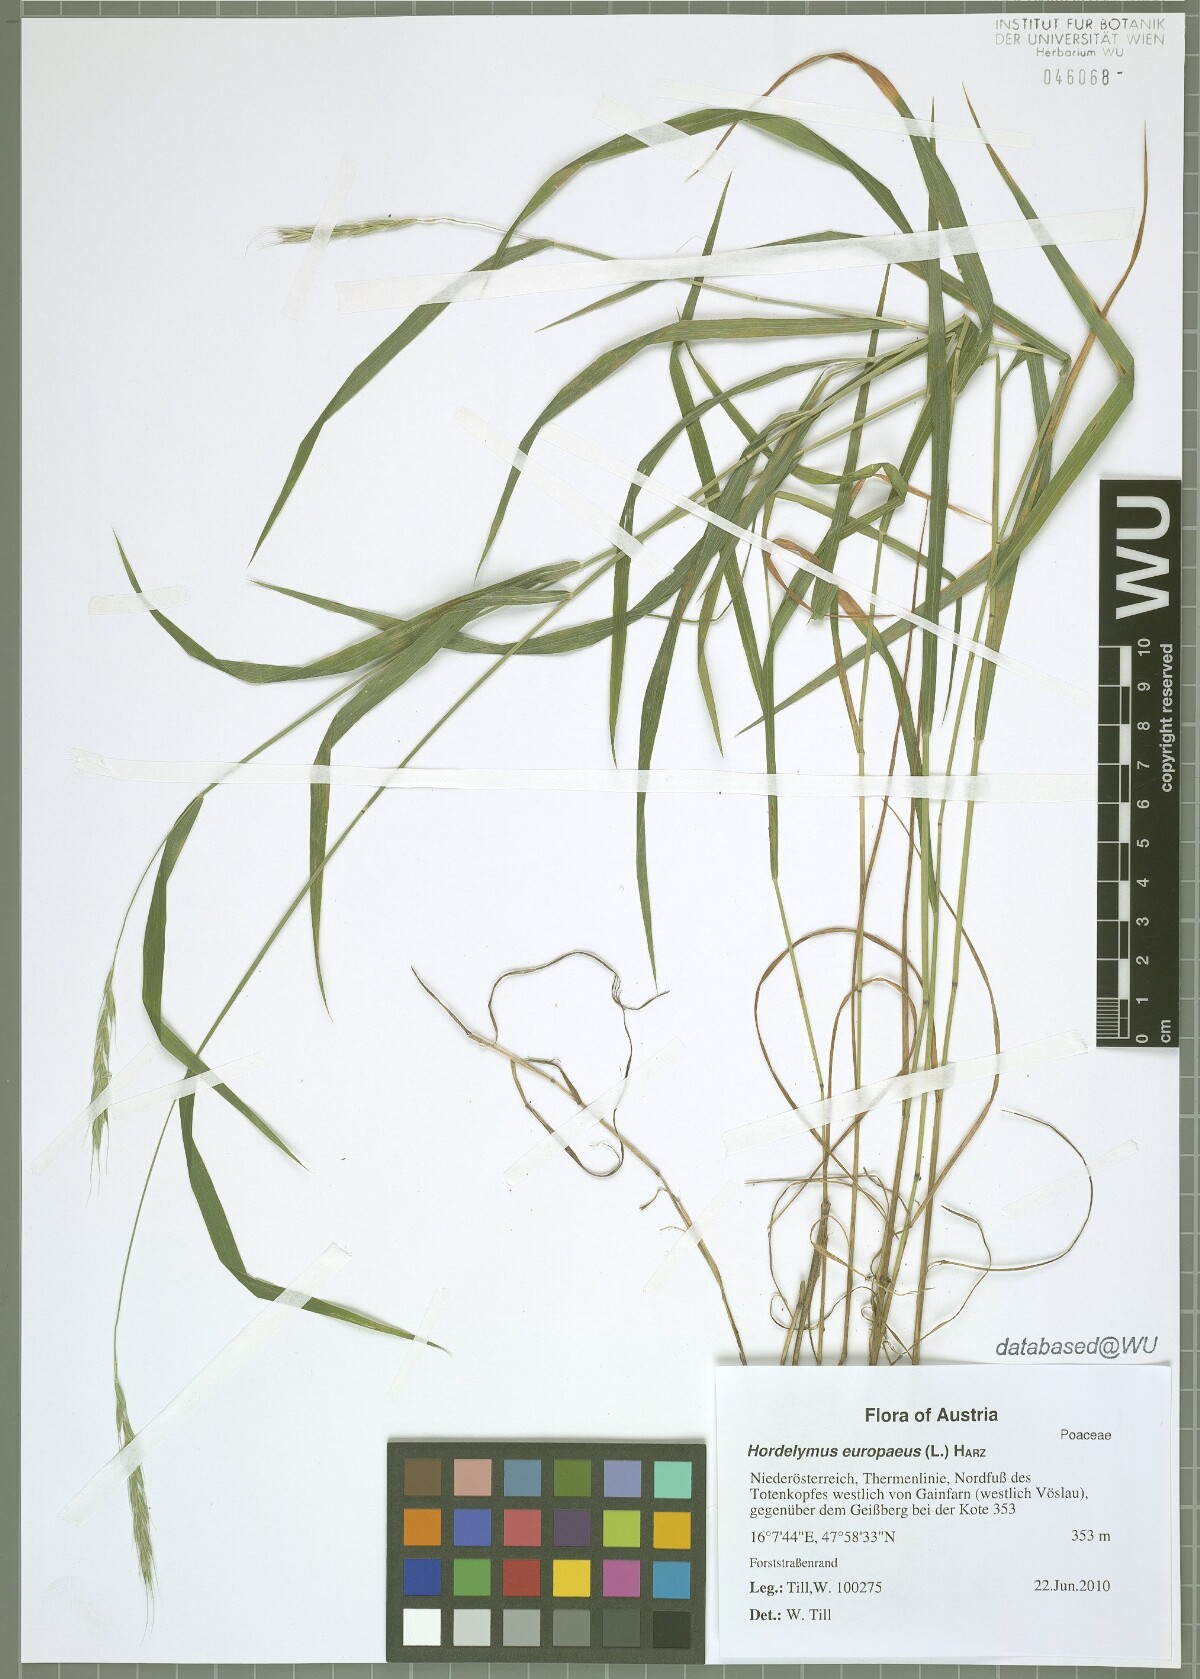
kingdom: Plantae
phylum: Tracheophyta
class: Liliopsida
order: Poales
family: Poaceae
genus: Hordelymus
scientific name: Hordelymus europaeus
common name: Wood-barley
